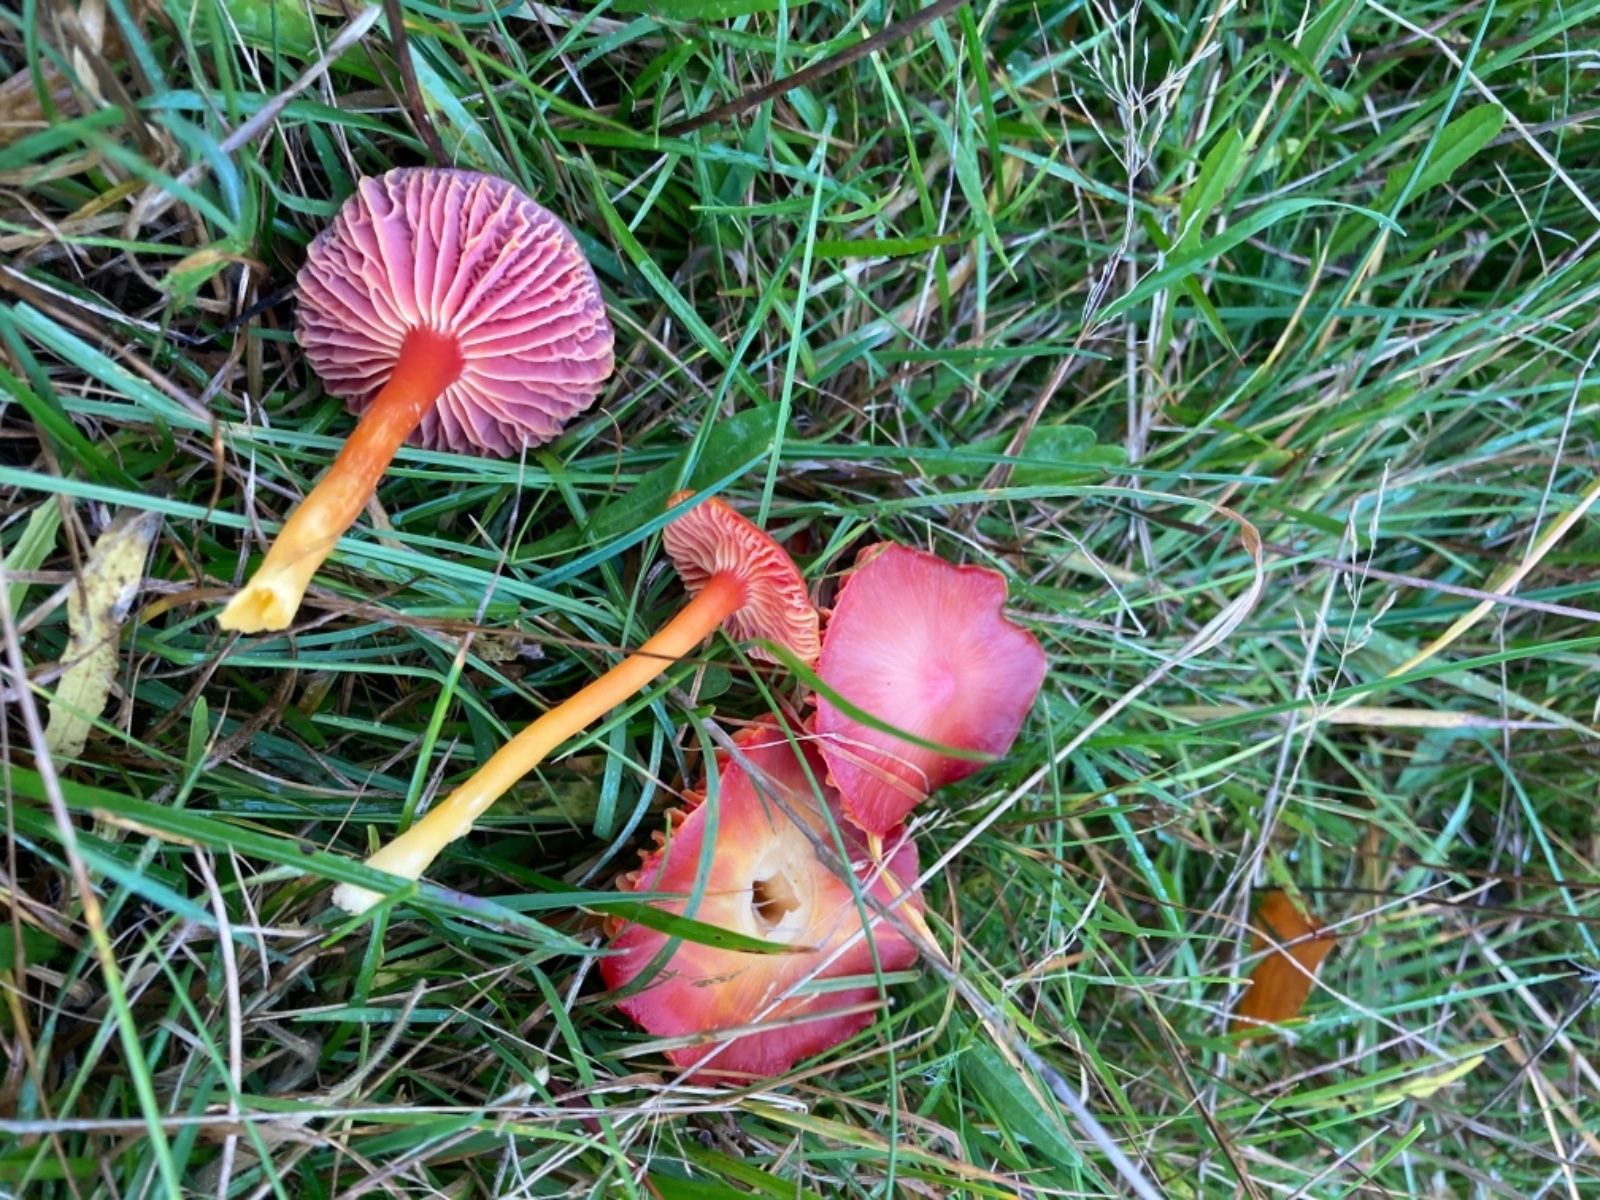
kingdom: Fungi
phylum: Basidiomycota
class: Agaricomycetes
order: Agaricales
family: Hygrophoraceae
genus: Hygrocybe
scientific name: Hygrocybe coccinea
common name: cinnober-vokshat
